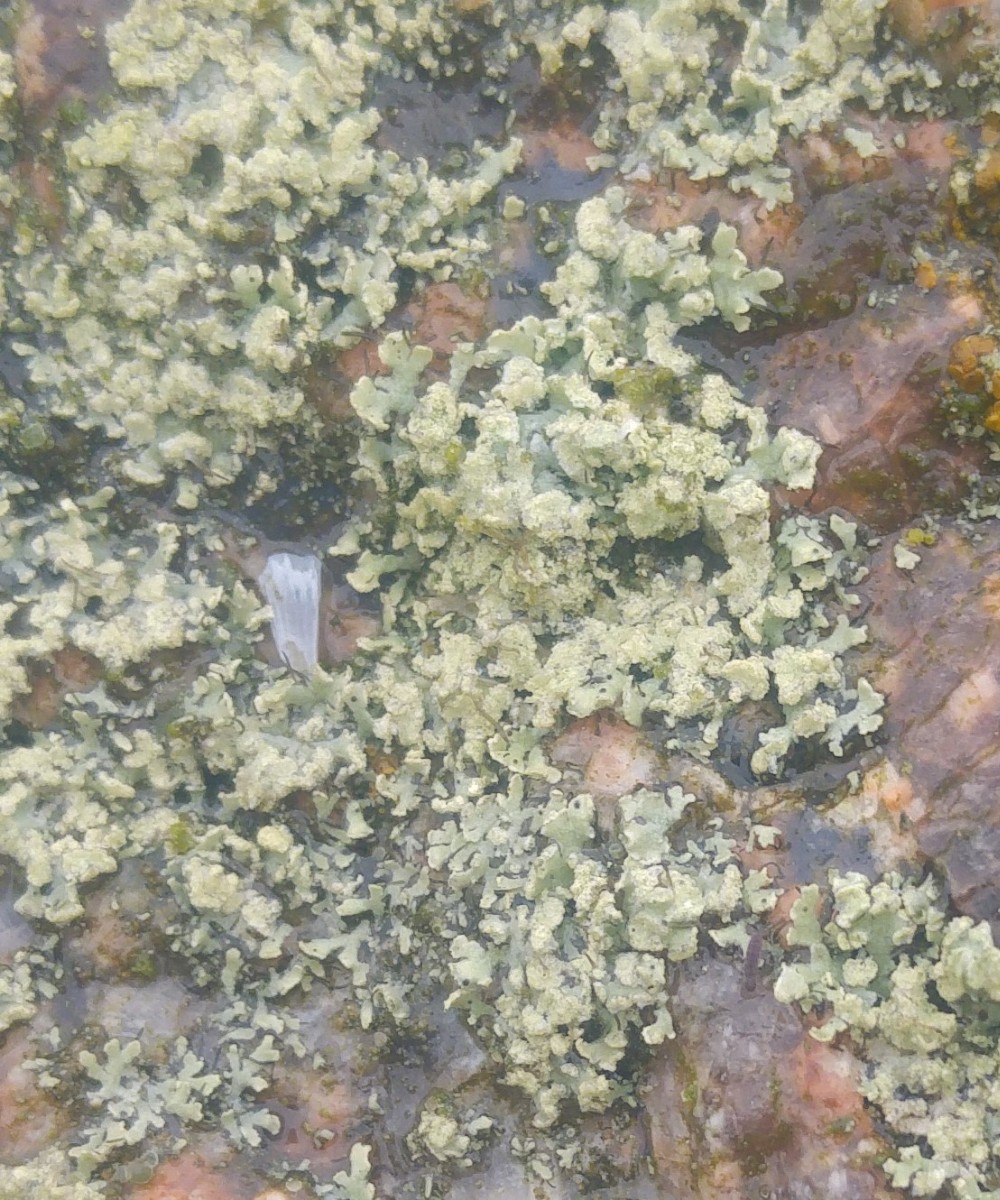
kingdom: Fungi
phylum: Ascomycota
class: Lecanoromycetes
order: Caliciales
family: Physciaceae
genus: Physcia
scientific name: Physcia tenella
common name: spæd rosetlav
